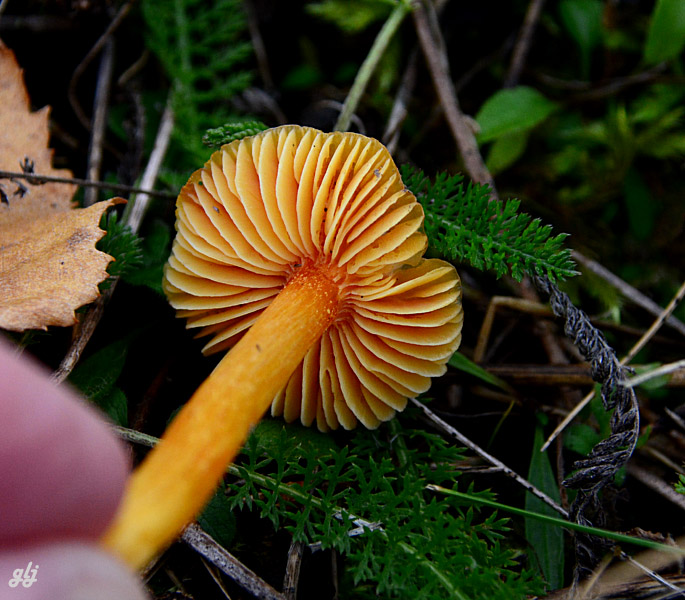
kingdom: Fungi
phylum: Basidiomycota
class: Agaricomycetes
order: Agaricales
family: Hygrophoraceae
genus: Hygrocybe
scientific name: Hygrocybe
